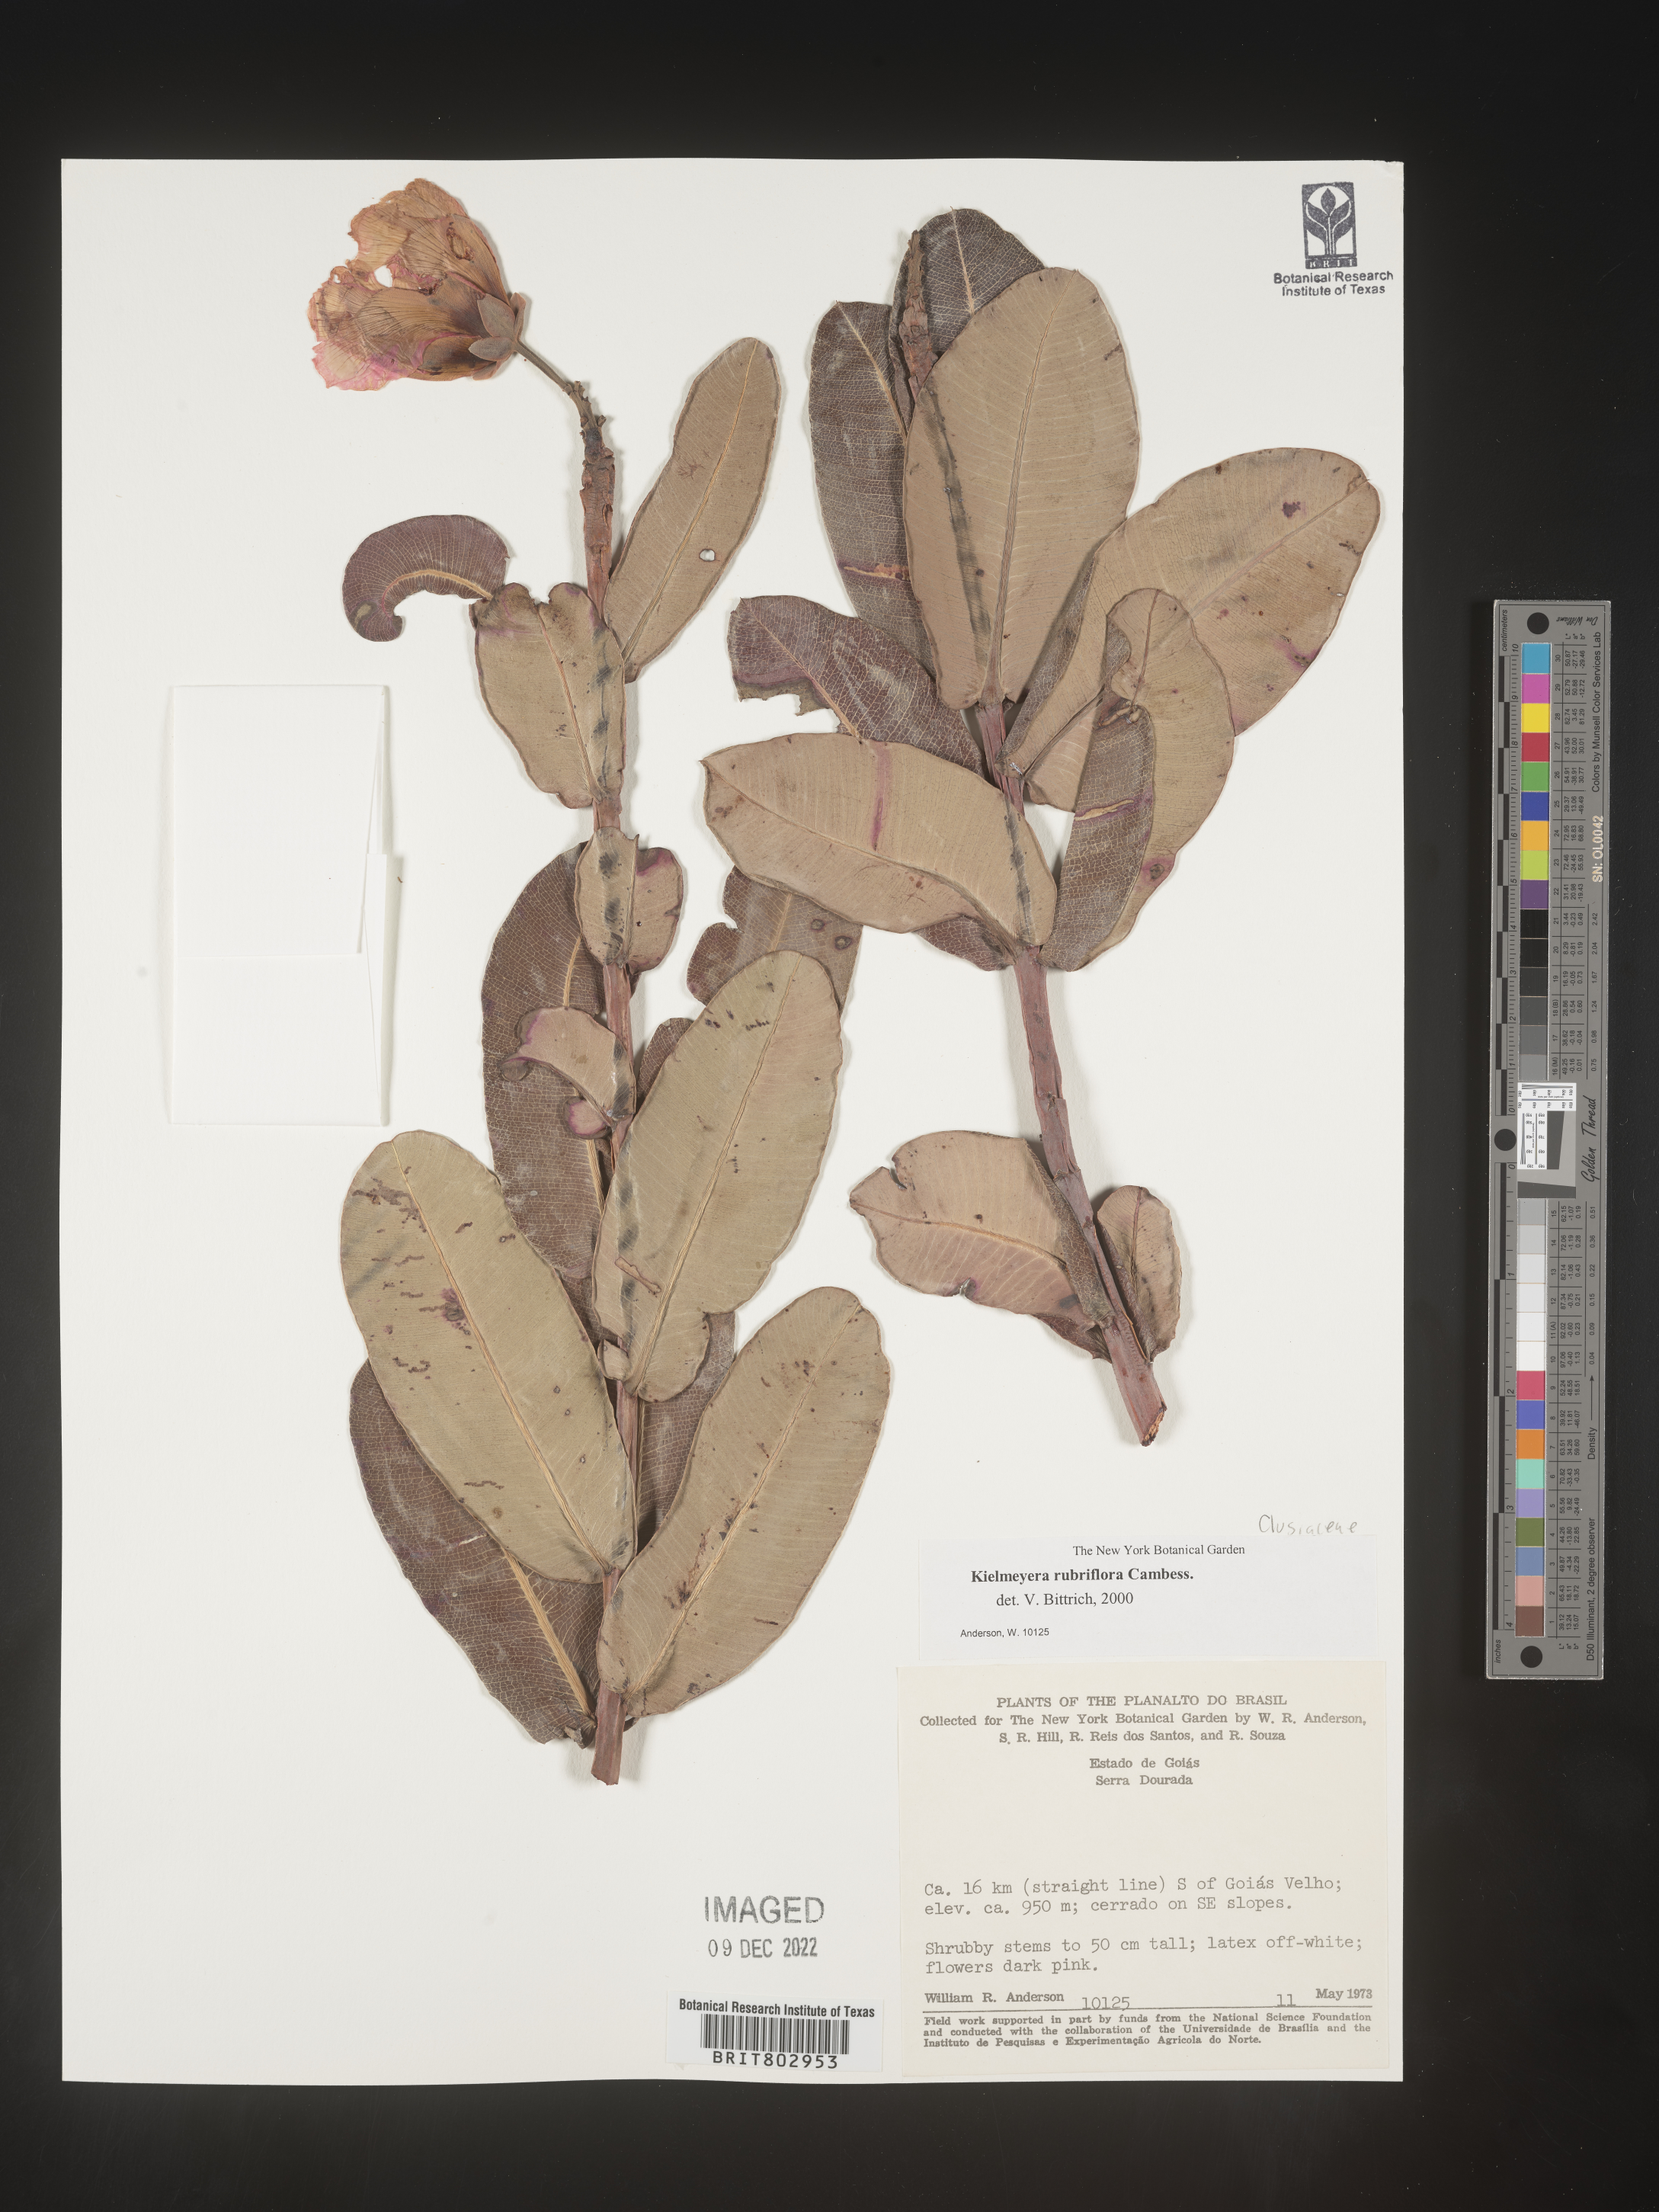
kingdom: Plantae
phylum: Tracheophyta
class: Magnoliopsida
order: Malpighiales
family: Calophyllaceae
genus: Kielmeyera
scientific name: Kielmeyera
